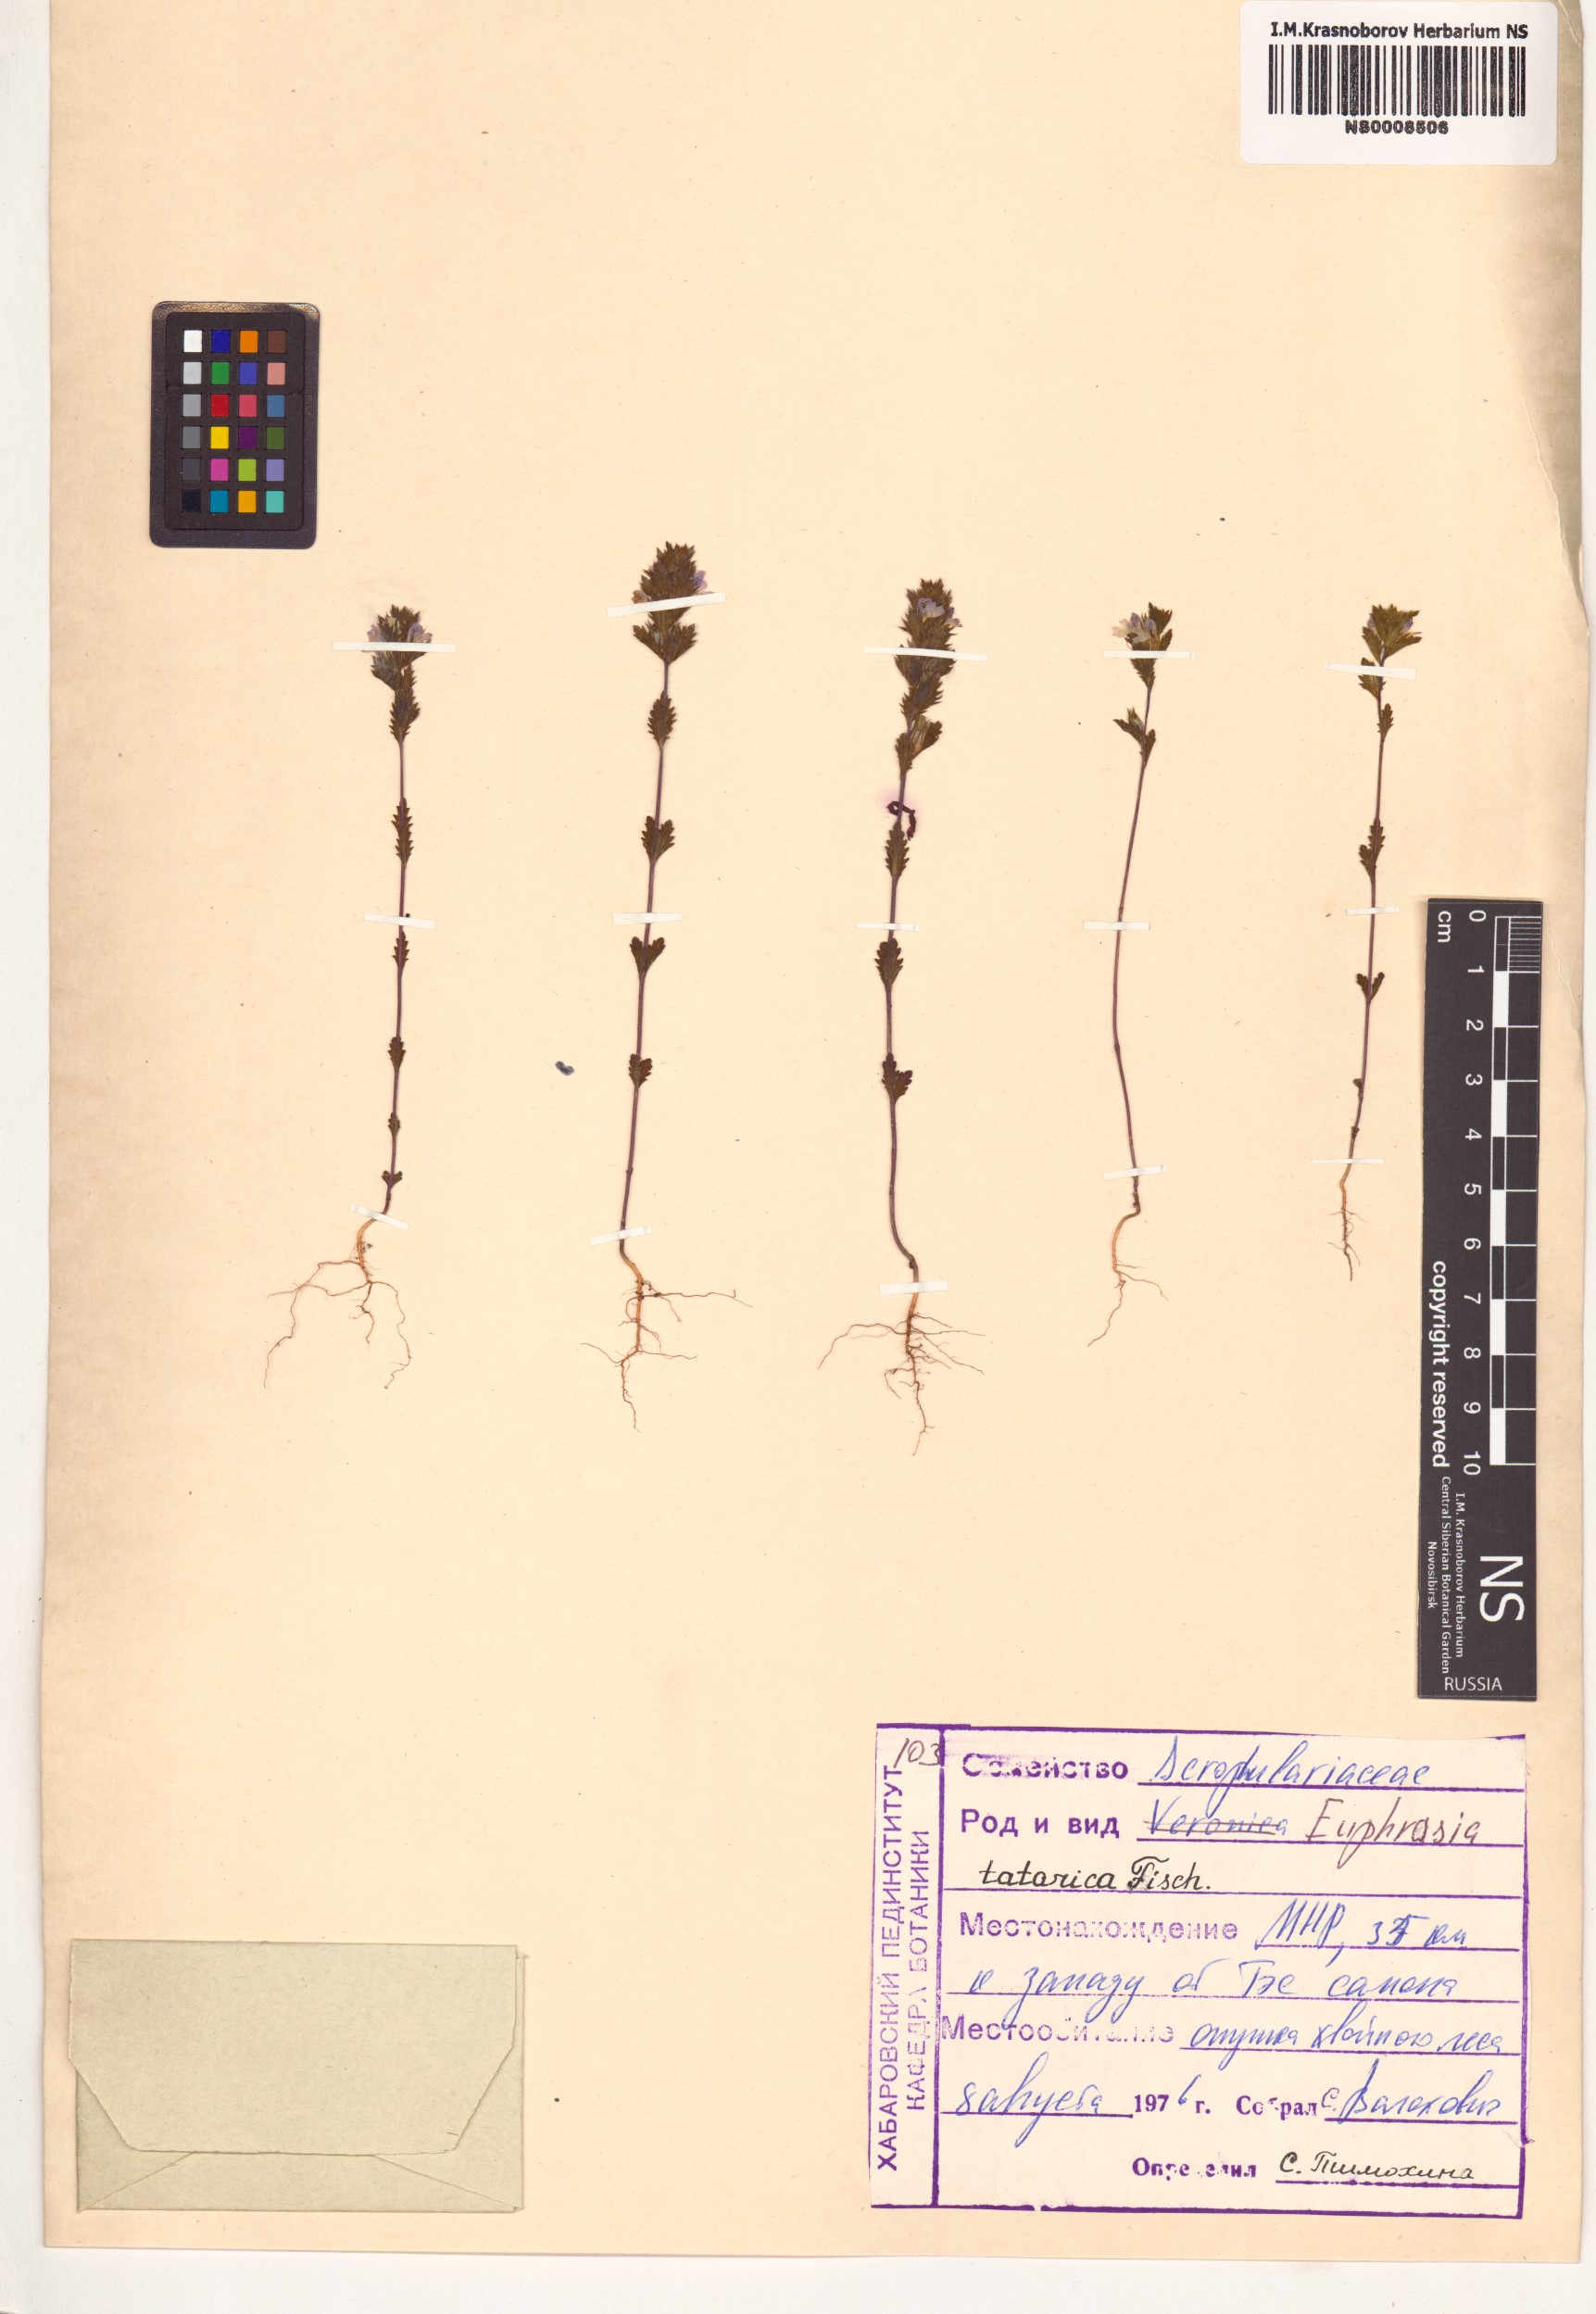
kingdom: Plantae
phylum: Tracheophyta
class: Magnoliopsida
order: Lamiales
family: Orobanchaceae
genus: Euphrasia
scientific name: Euphrasia pectinata
